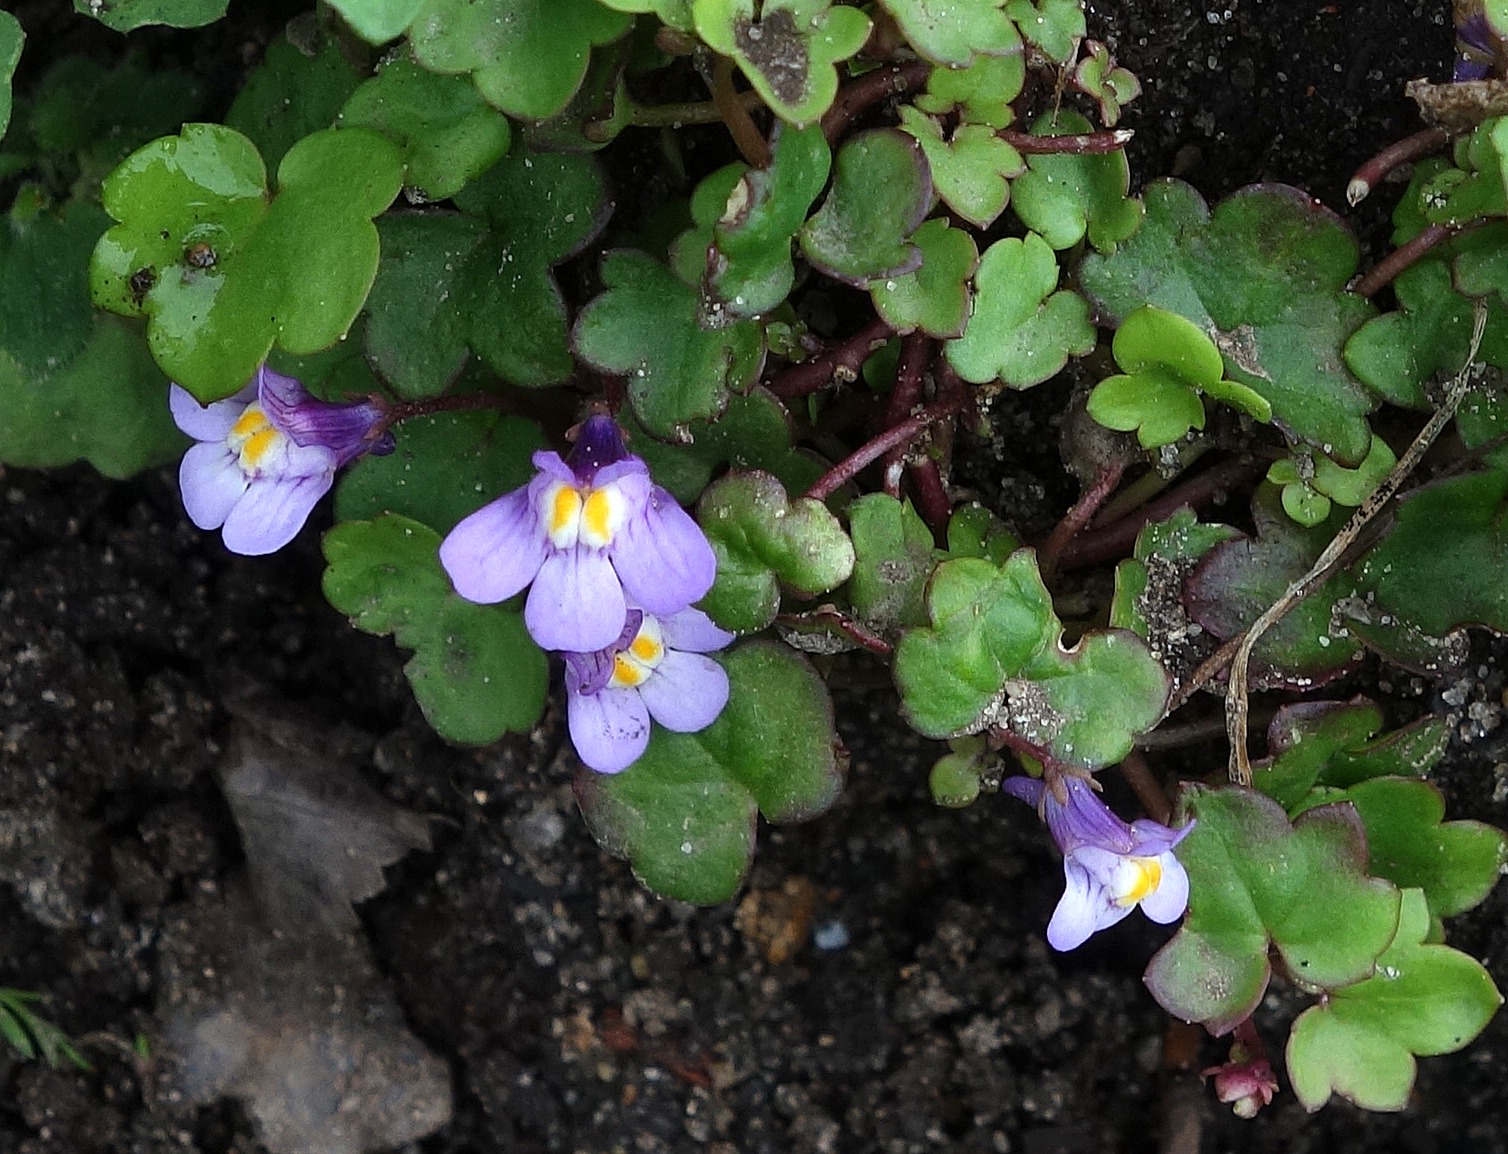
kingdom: Plantae
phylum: Tracheophyta
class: Magnoliopsida
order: Lamiales
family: Plantaginaceae
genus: Cymbalaria
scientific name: Cymbalaria muralis
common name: Vedbend-torskemund
